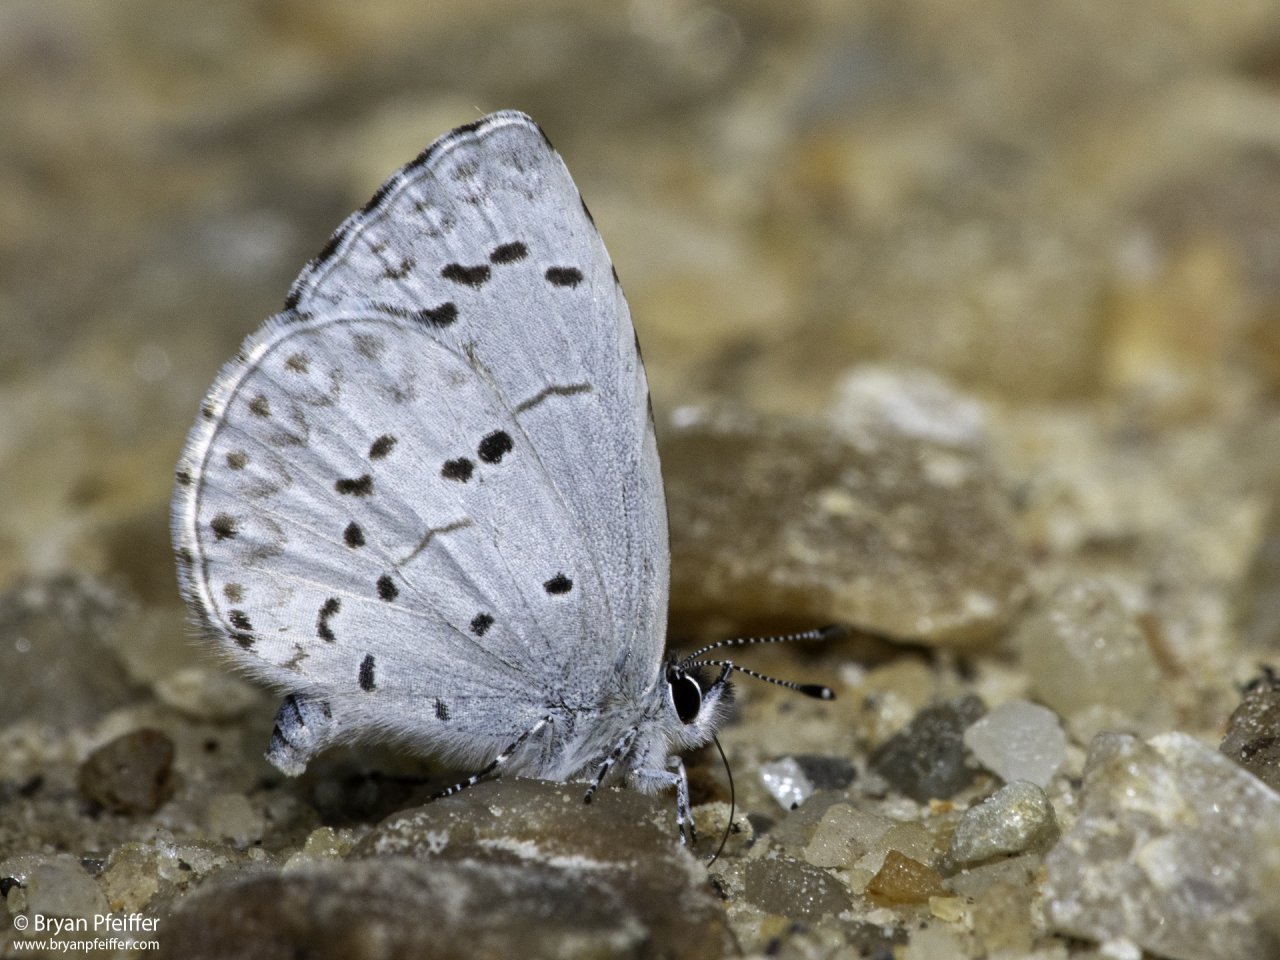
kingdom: Animalia
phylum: Arthropoda
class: Insecta
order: Lepidoptera
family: Lycaenidae
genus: Celastrina
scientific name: Celastrina
